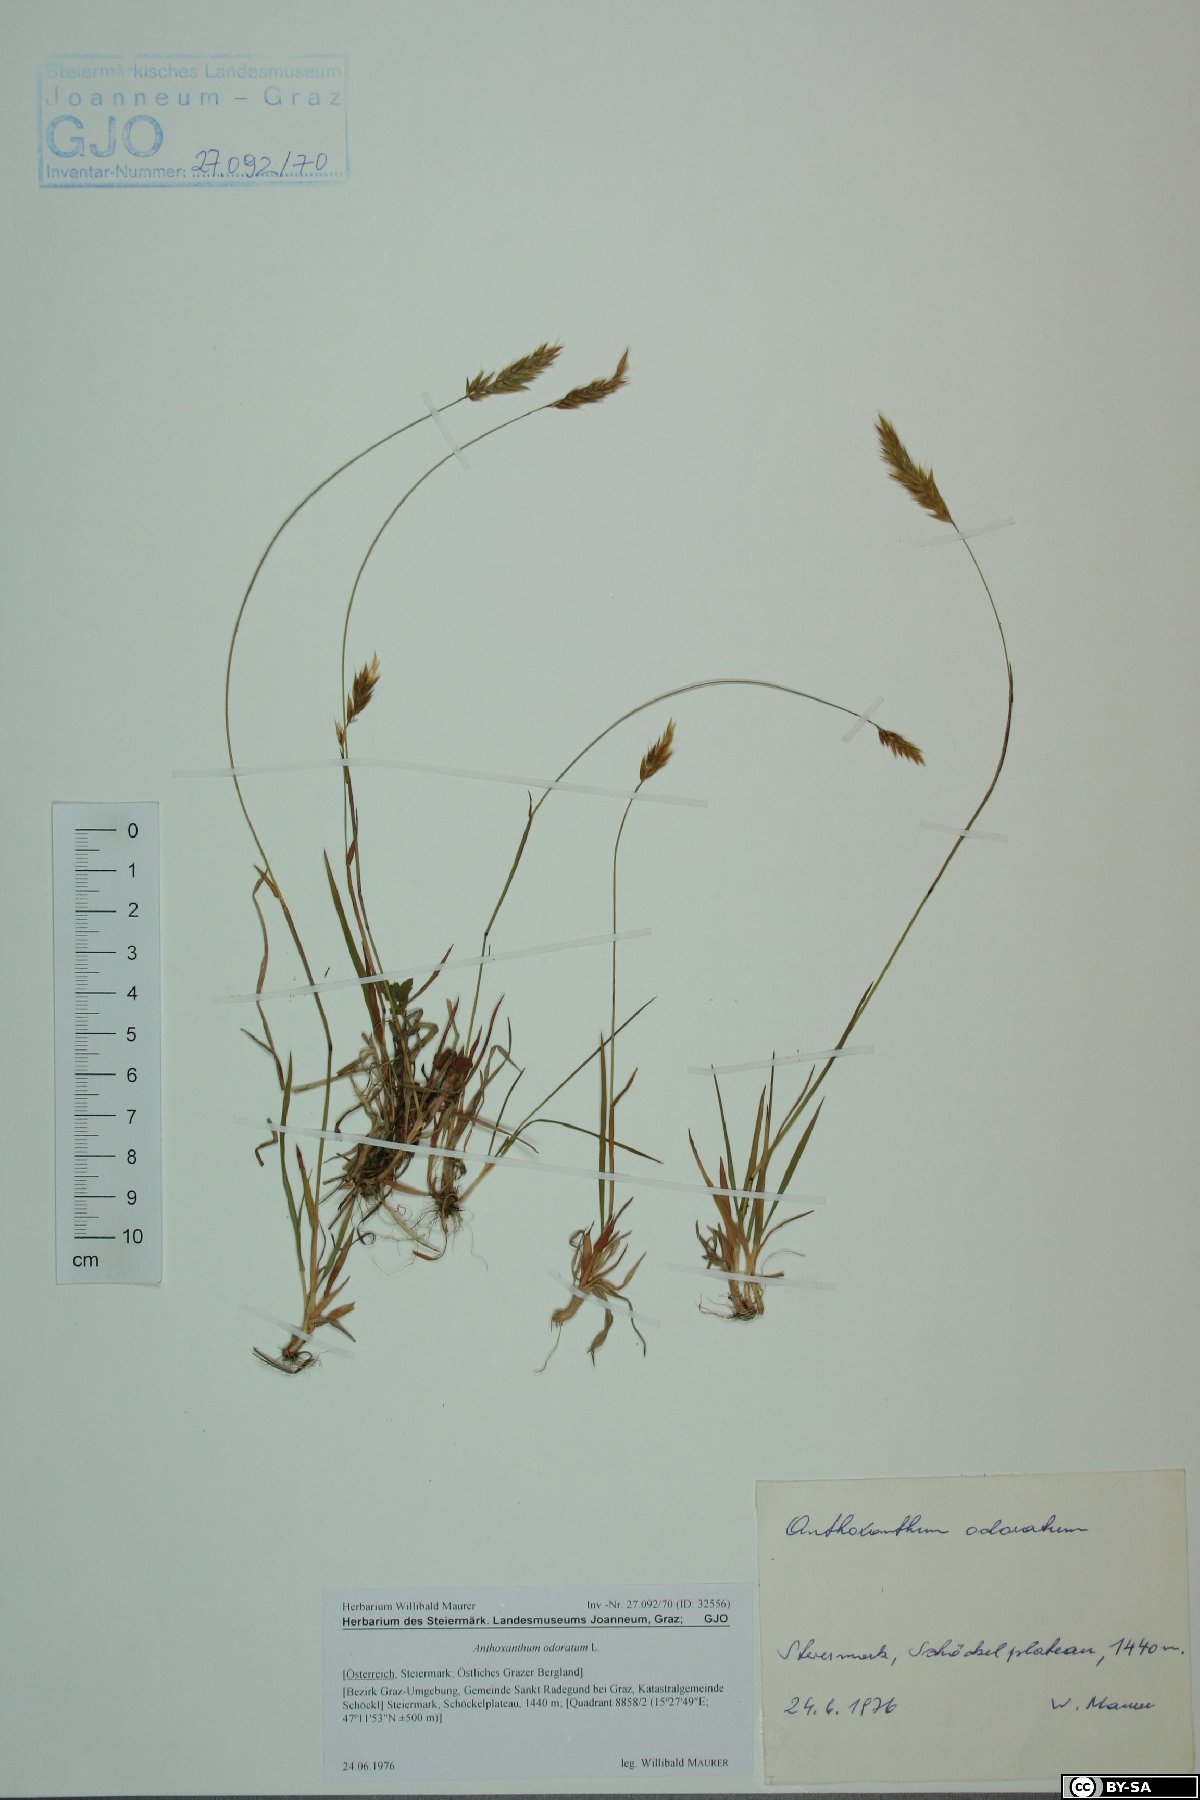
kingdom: Plantae
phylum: Tracheophyta
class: Liliopsida
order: Poales
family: Poaceae
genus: Anthoxanthum
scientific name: Anthoxanthum odoratum
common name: Sweet vernalgrass
